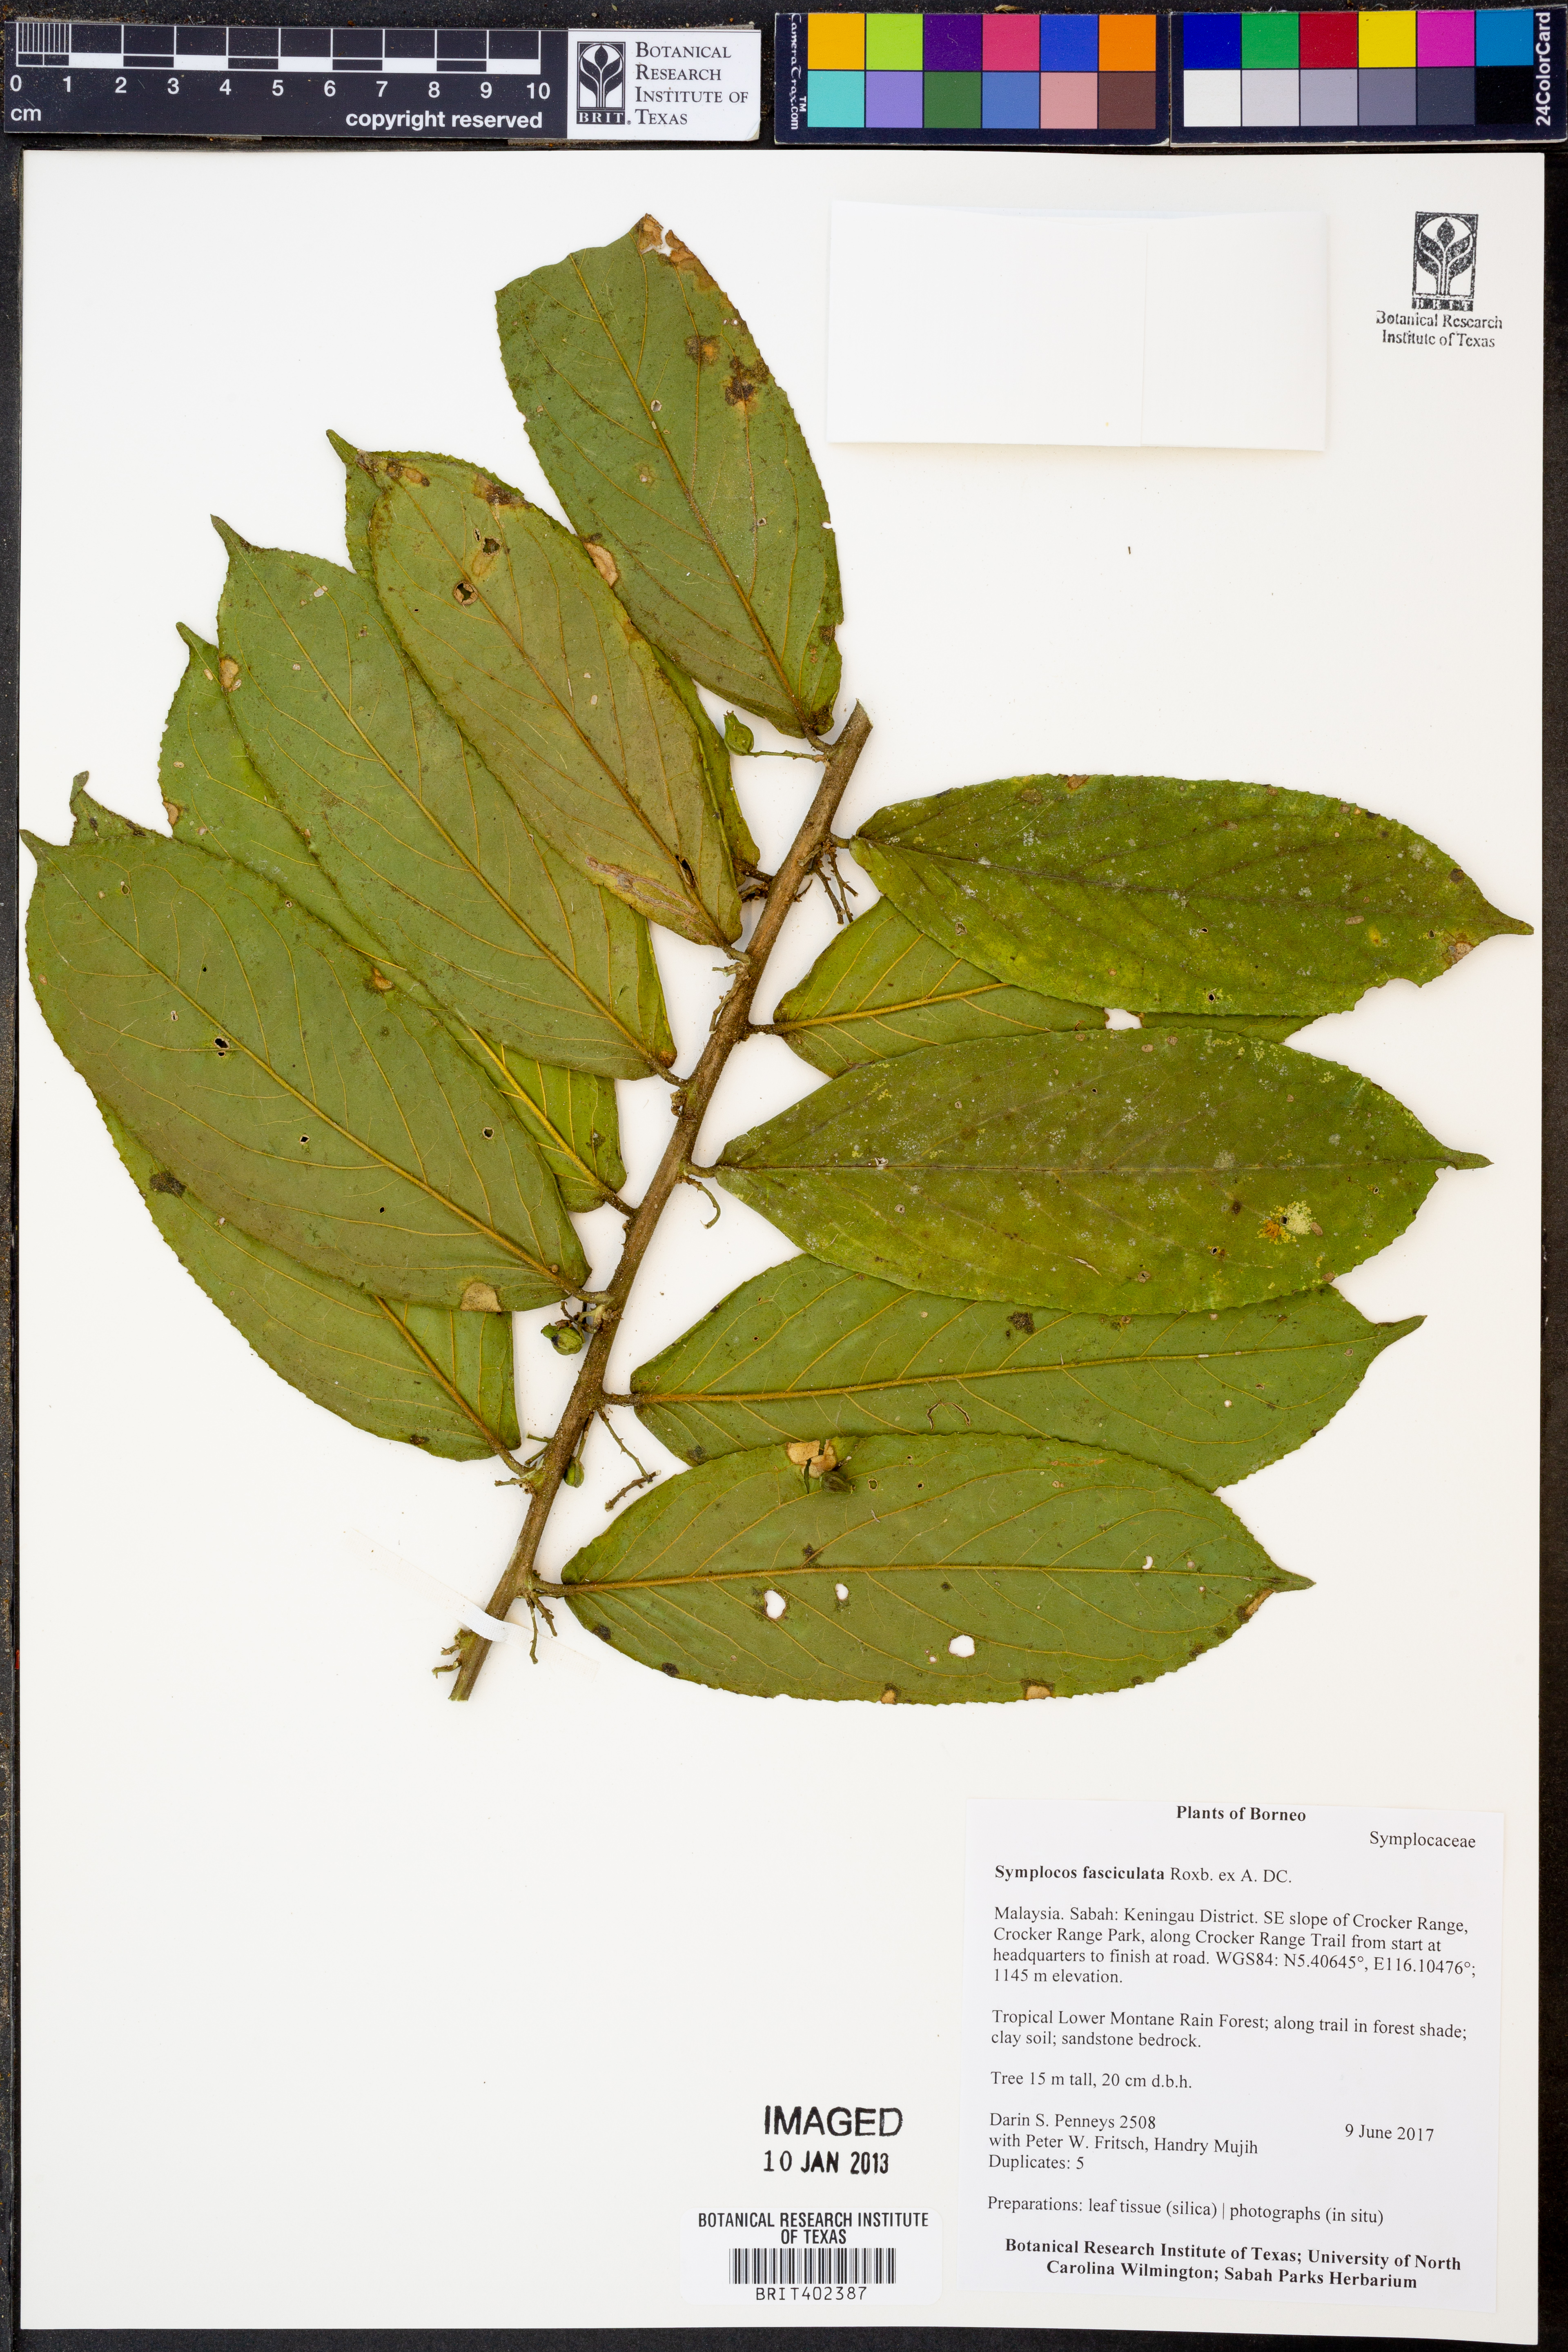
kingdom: Plantae
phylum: Tracheophyta
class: Magnoliopsida
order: Ericales
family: Symplocaceae
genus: Symplocos
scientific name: Symplocos fasciculata
